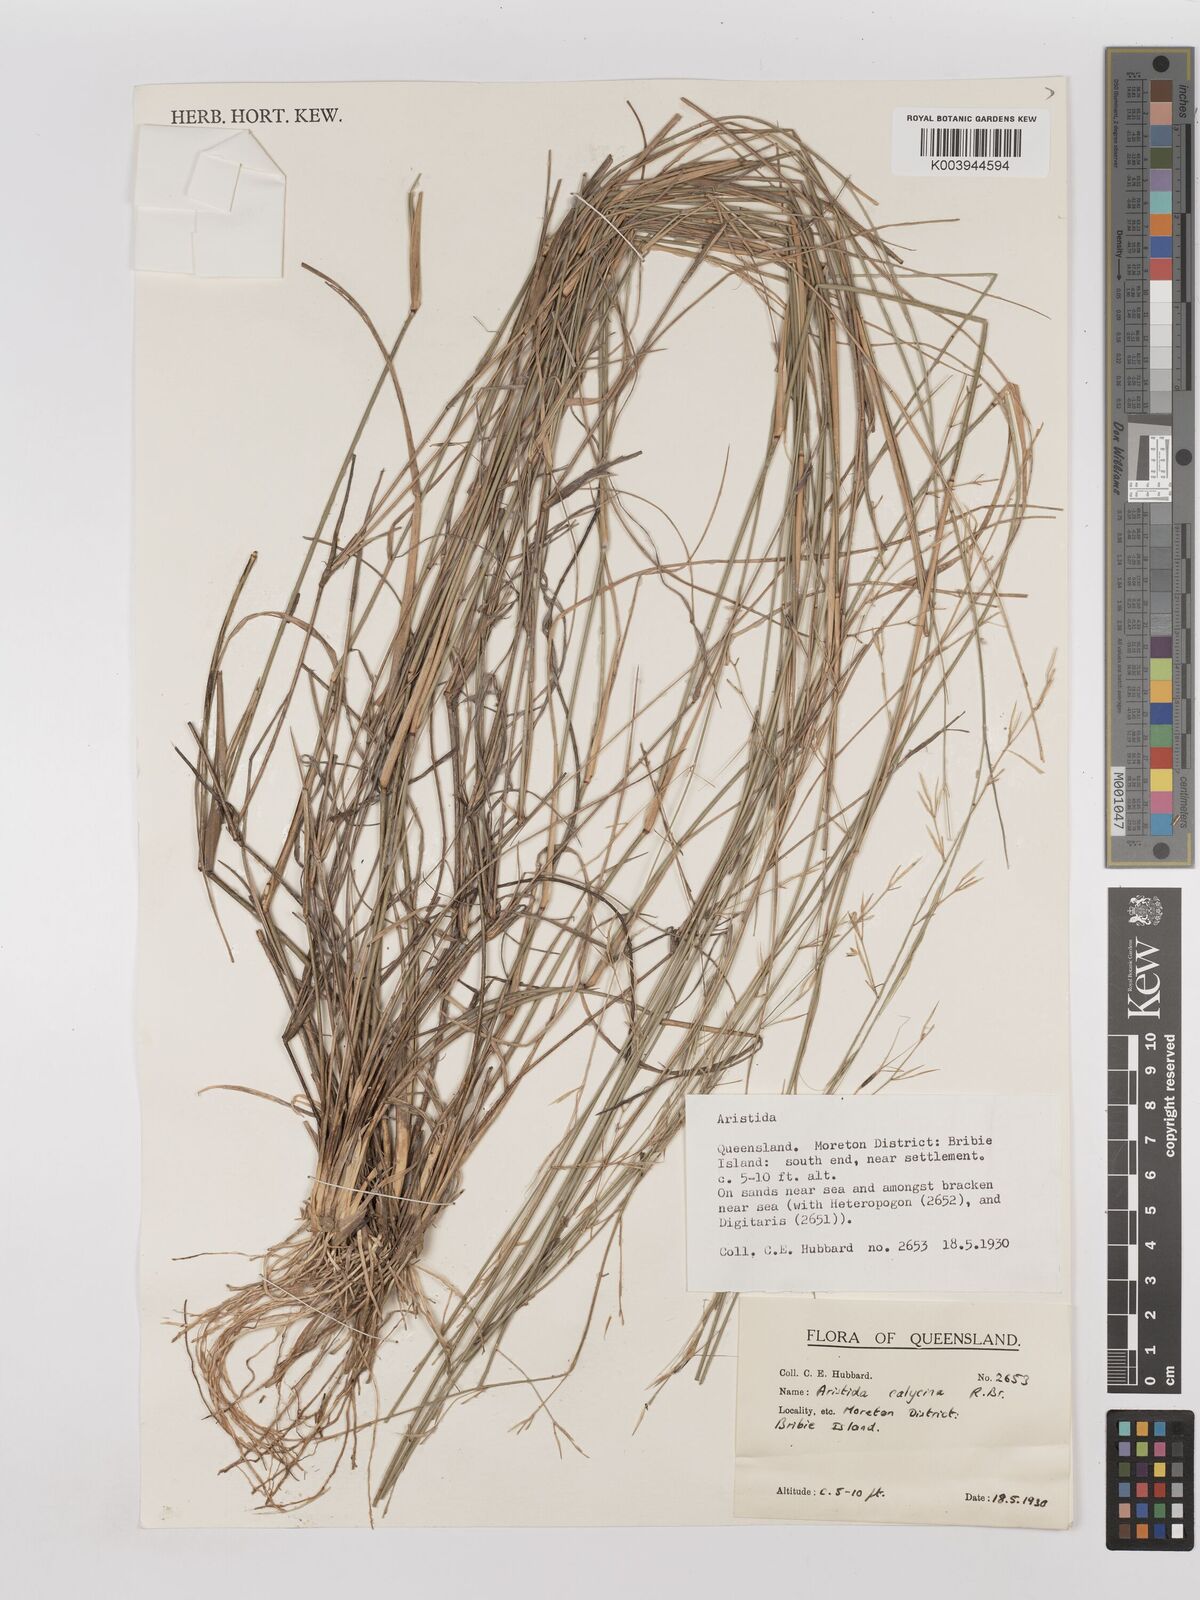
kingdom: Plantae
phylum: Tracheophyta
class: Liliopsida
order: Poales
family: Poaceae
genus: Aristida
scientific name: Aristida calycina
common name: Dark wire grass
